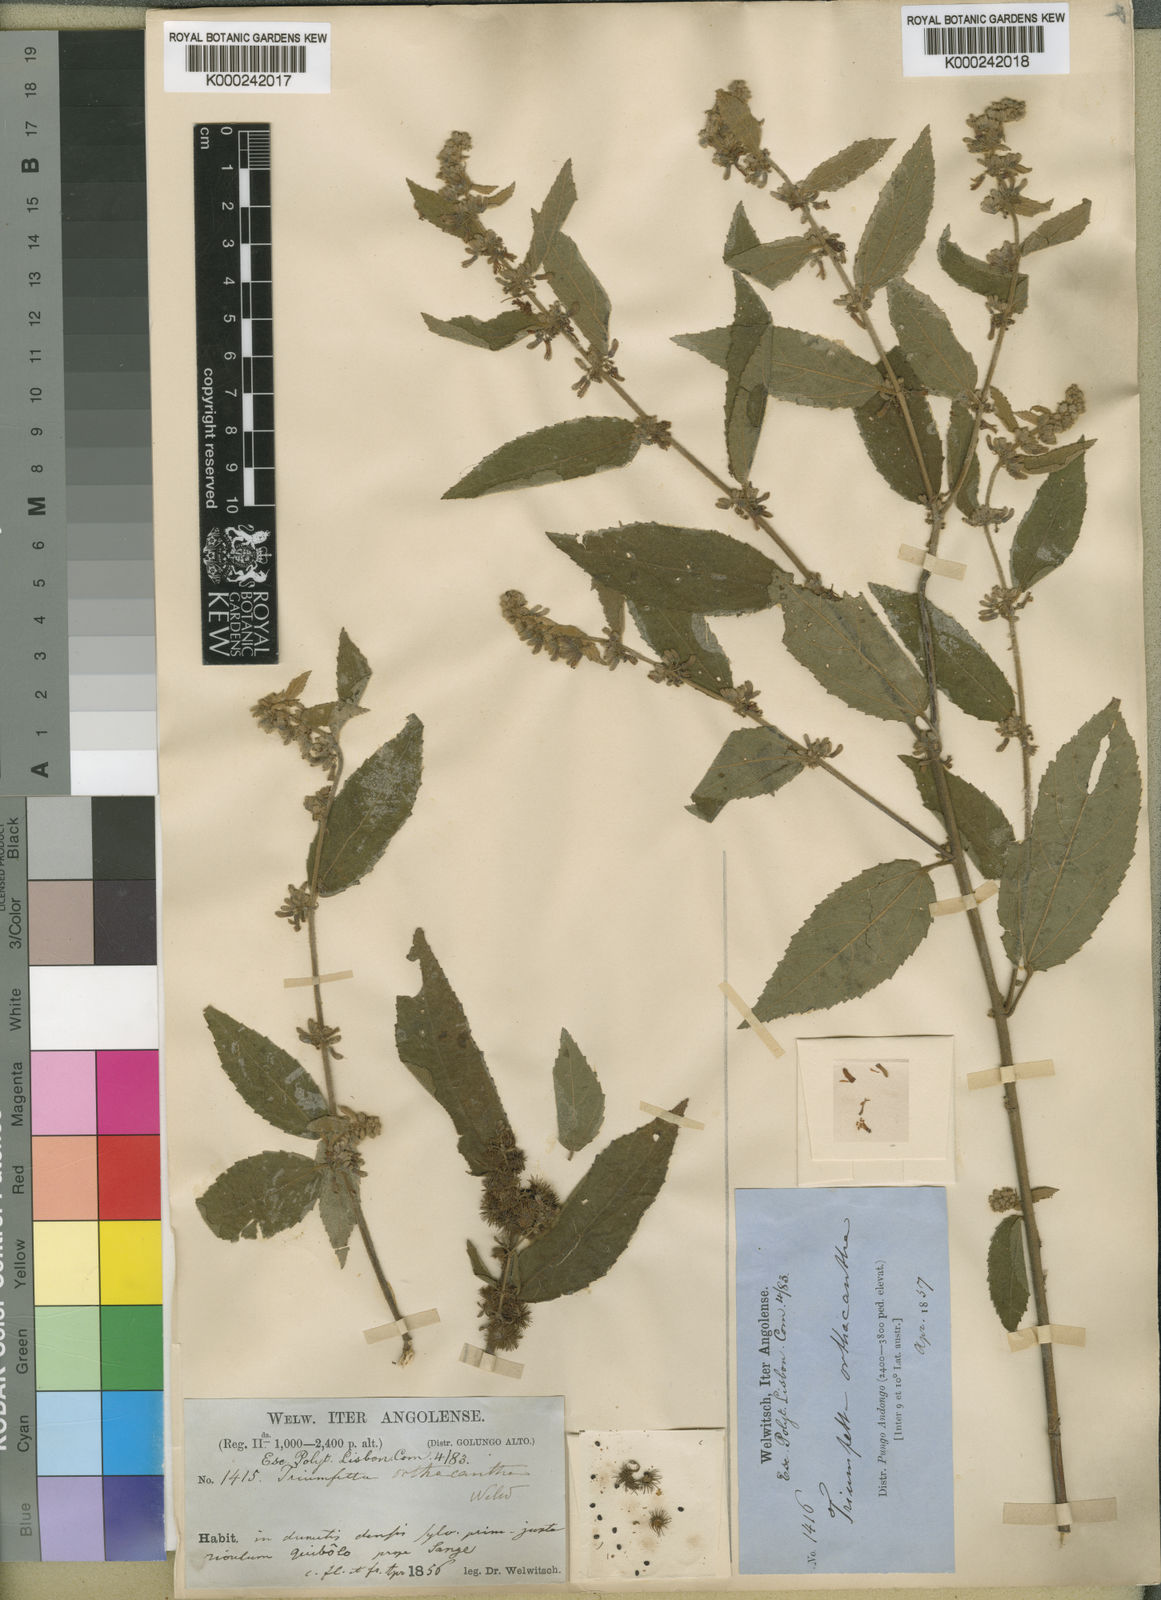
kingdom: Plantae
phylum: Tracheophyta
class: Magnoliopsida
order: Malvales
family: Malvaceae
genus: Triumfetta
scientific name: Triumfetta setulosa
